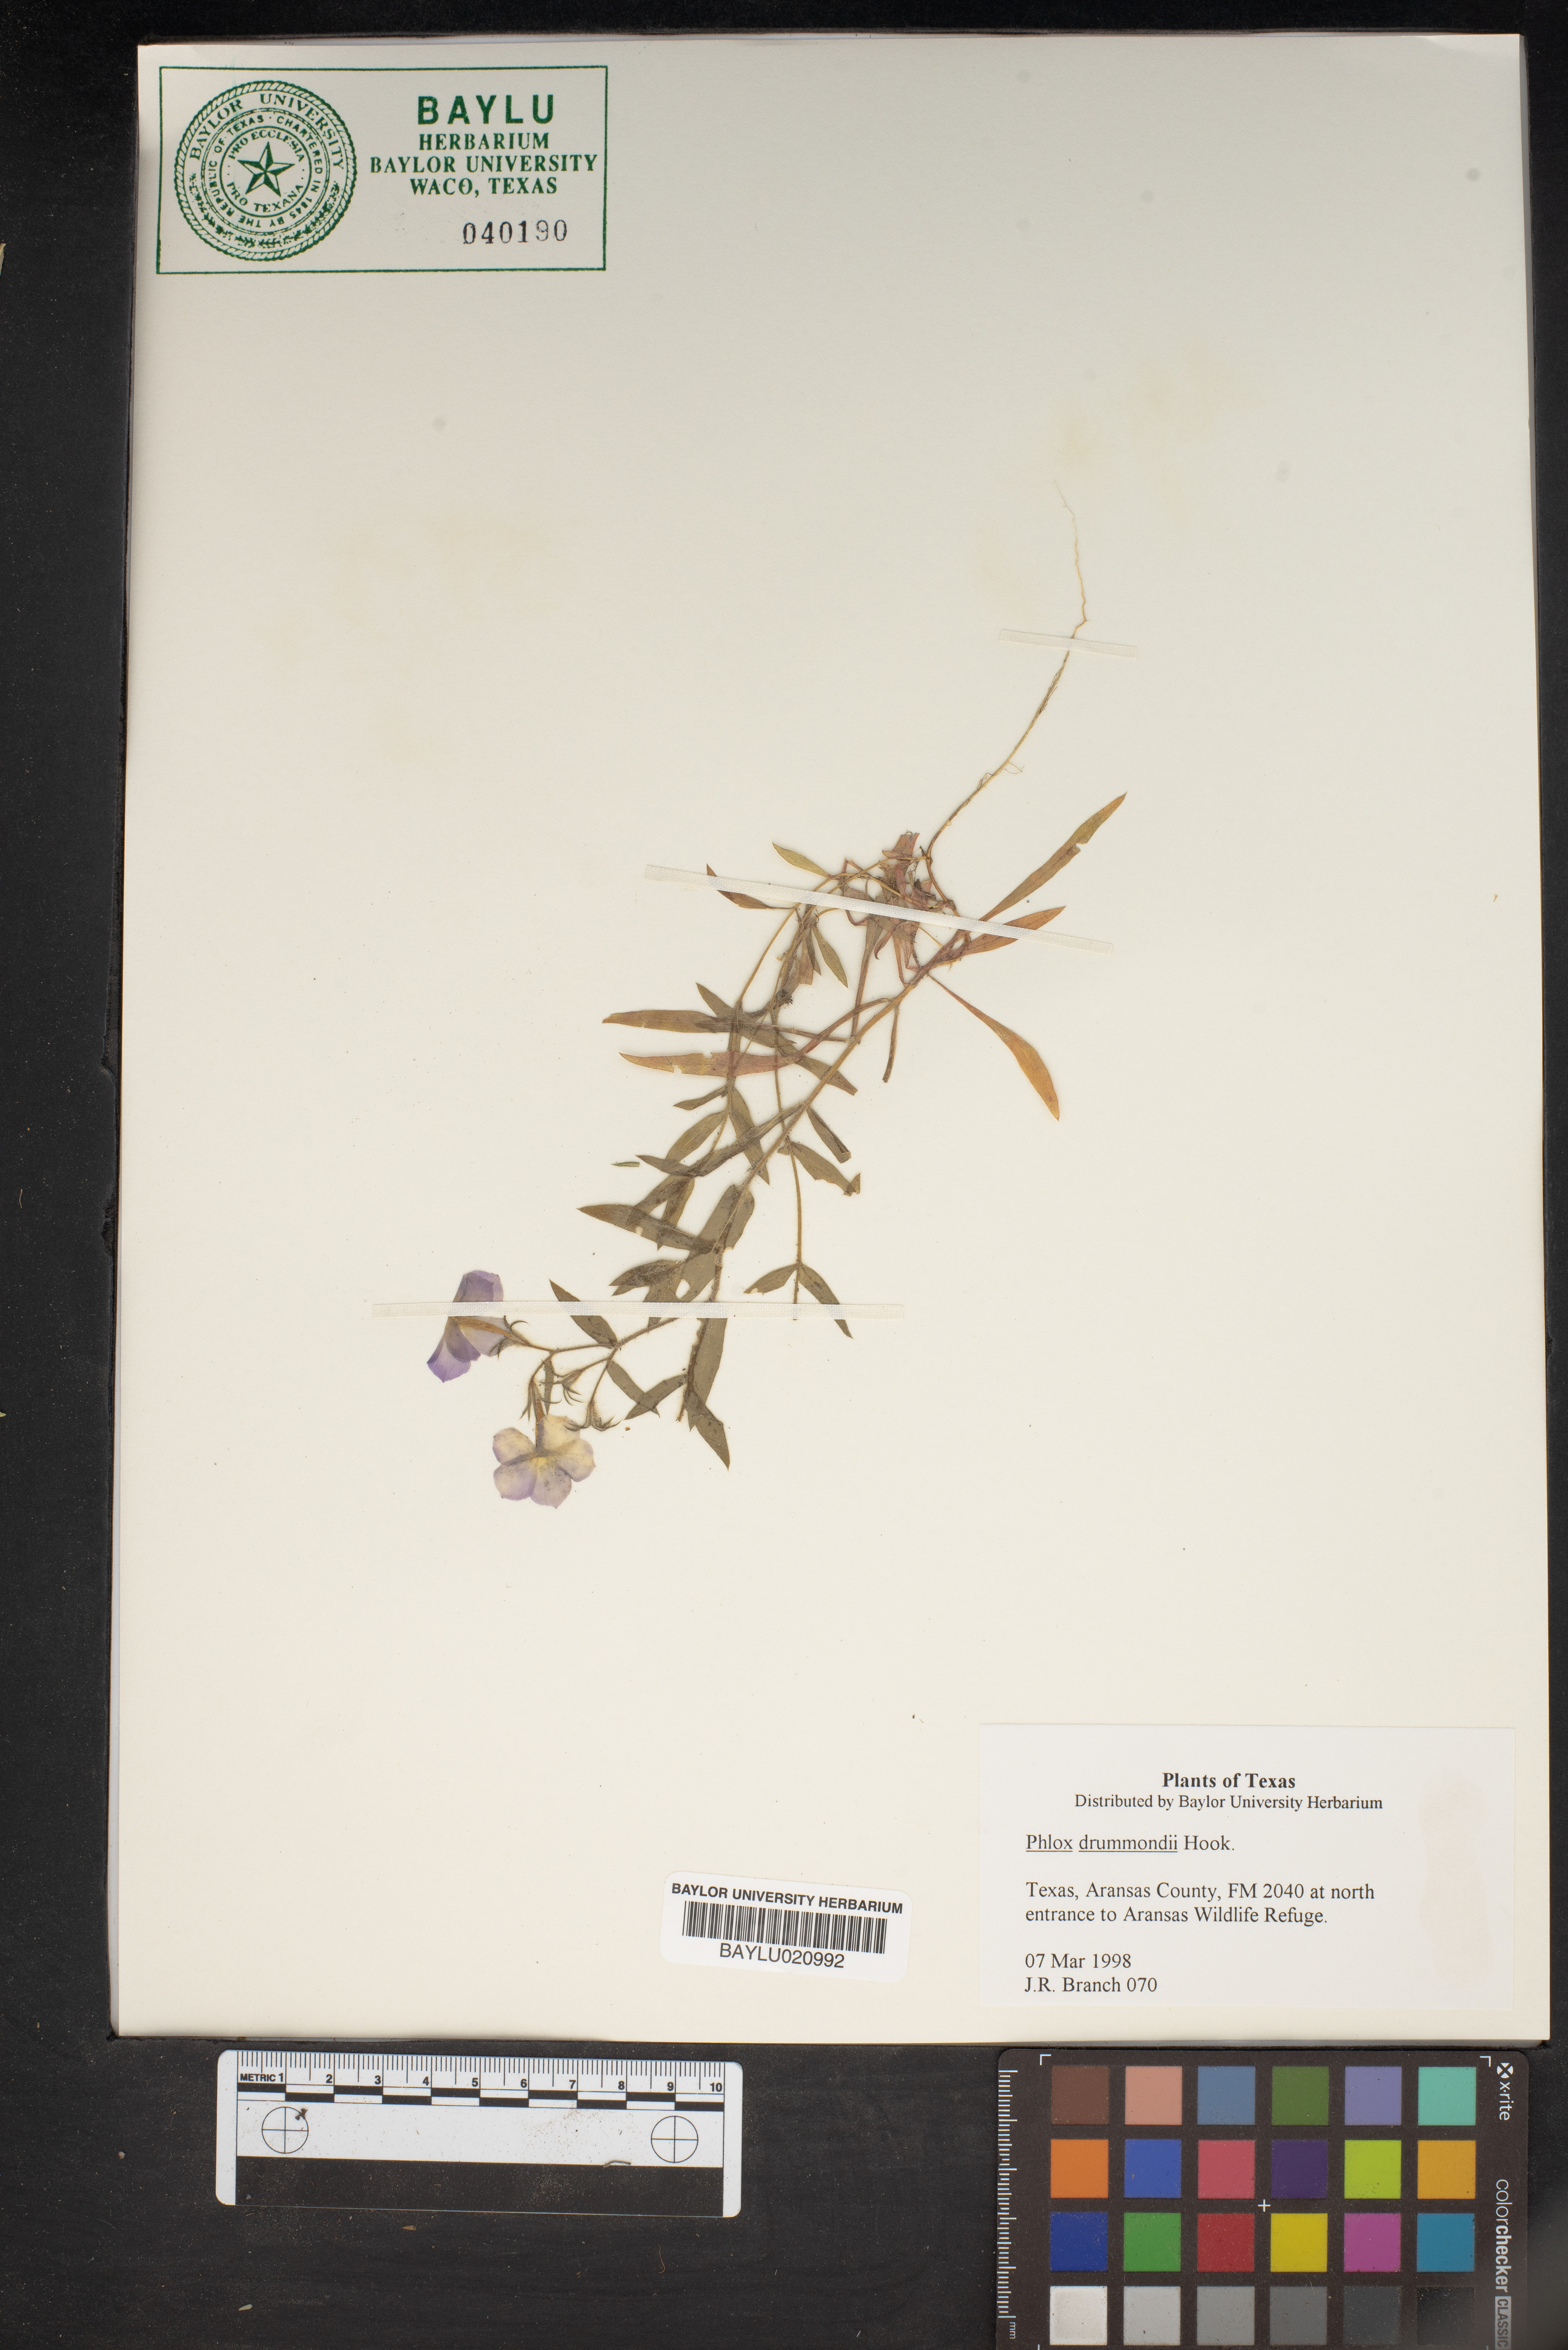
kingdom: Plantae
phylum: Tracheophyta
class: Magnoliopsida
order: Ericales
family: Polemoniaceae
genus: Phlox
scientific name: Phlox drummondii
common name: Drummond's phlox
